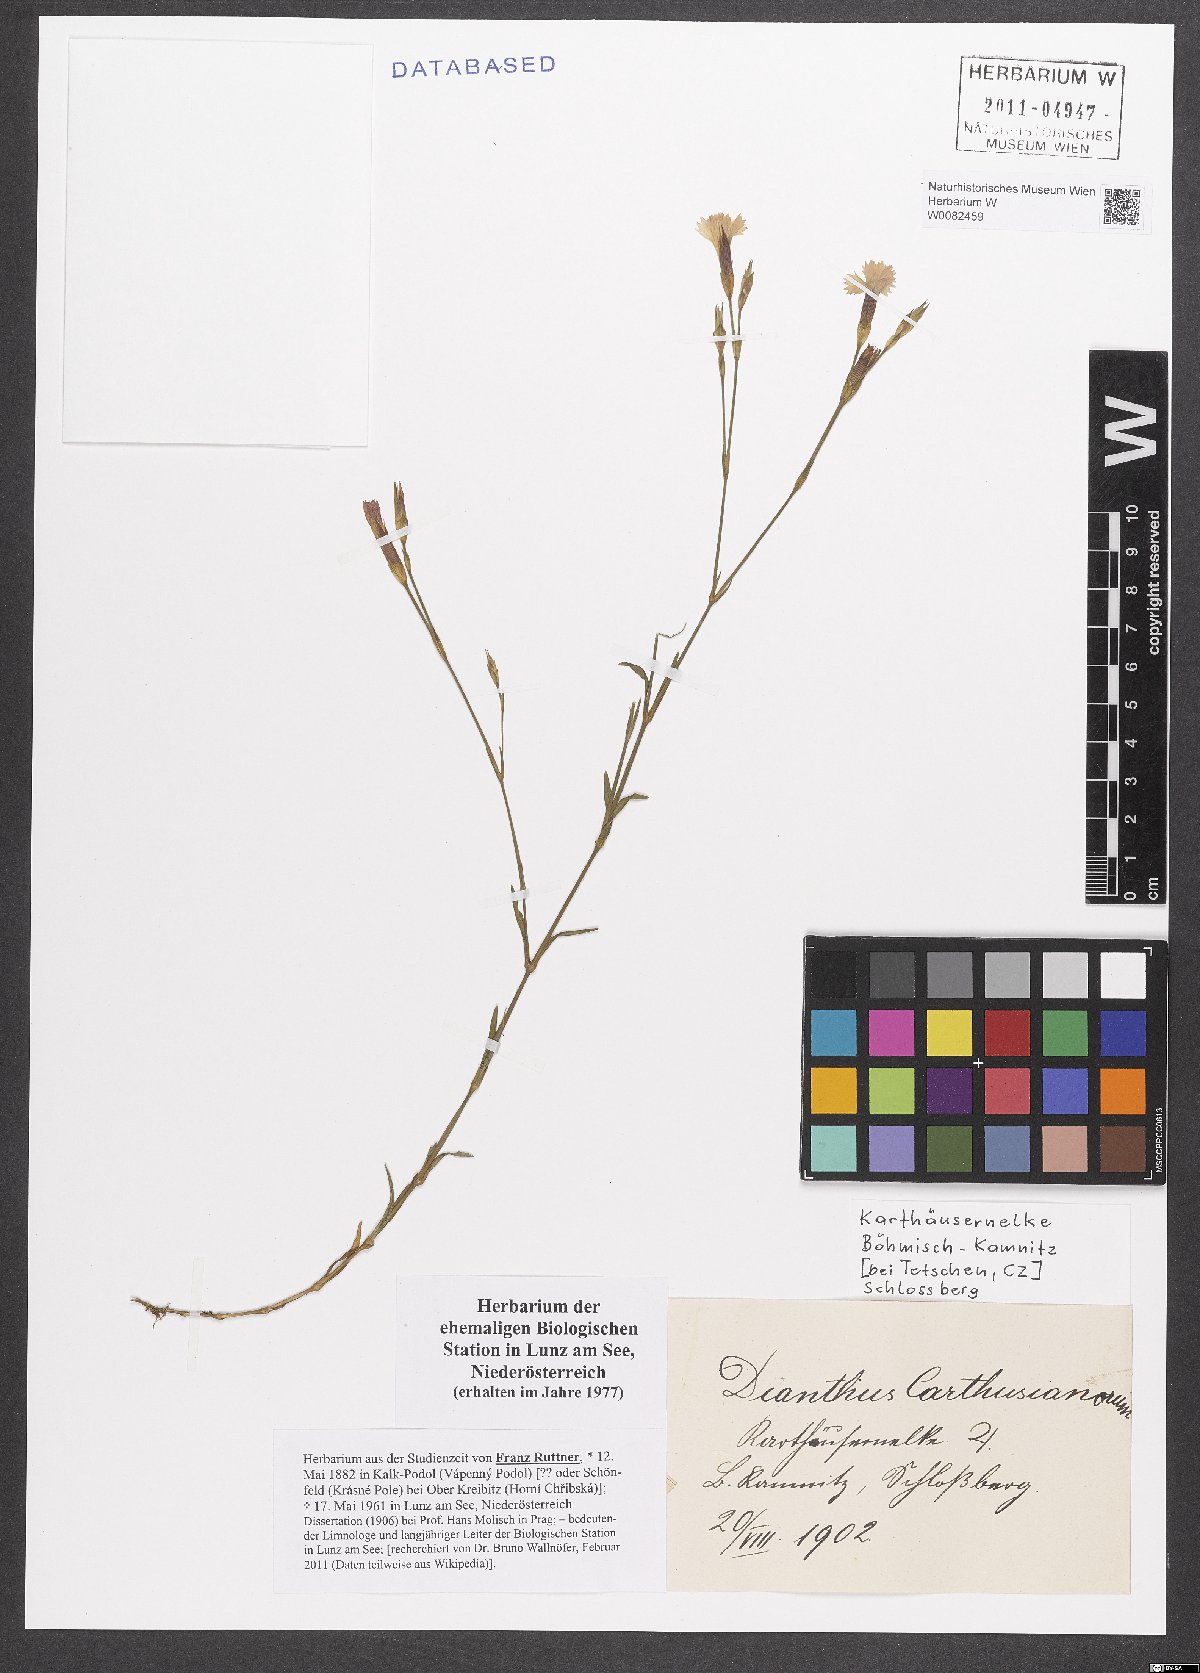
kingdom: Plantae
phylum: Tracheophyta
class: Magnoliopsida
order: Caryophyllales
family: Caryophyllaceae
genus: Dianthus
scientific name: Dianthus carthusianorum
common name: Carthusian pink
